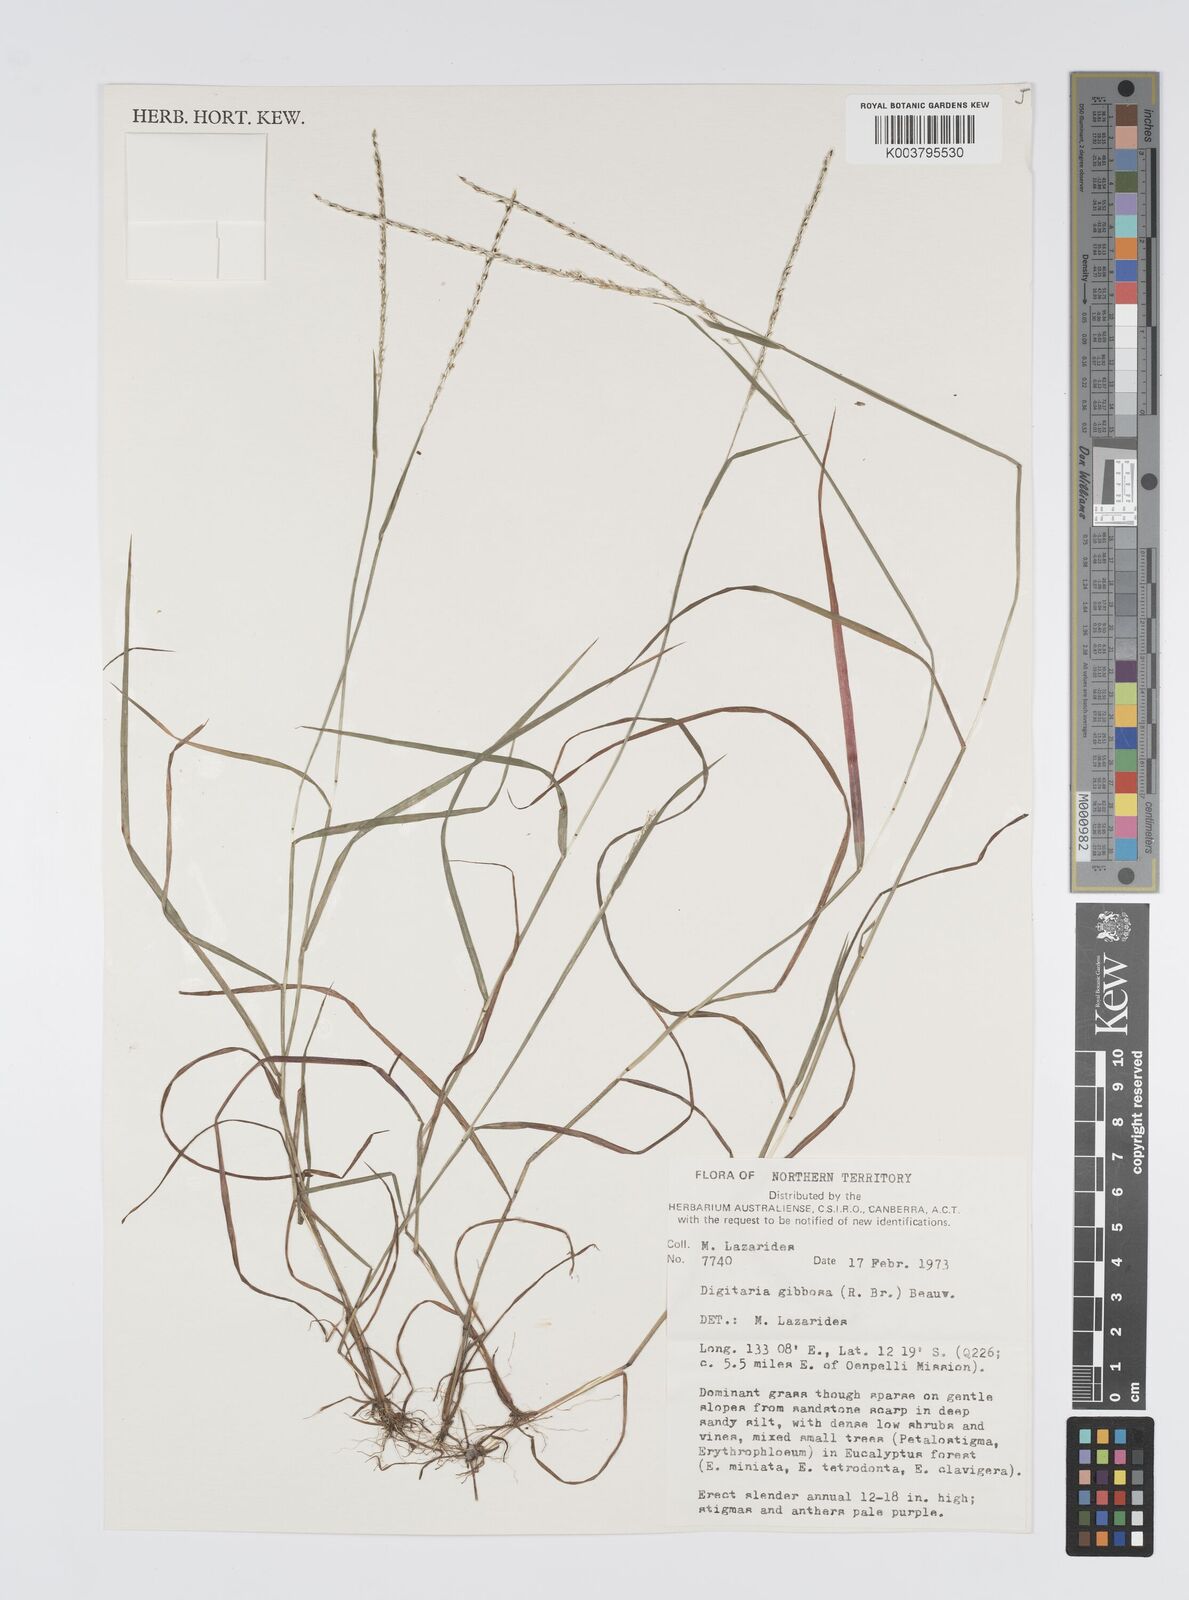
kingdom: Plantae
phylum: Tracheophyta
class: Liliopsida
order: Poales
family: Poaceae
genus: Digitaria
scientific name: Digitaria gibbosa
